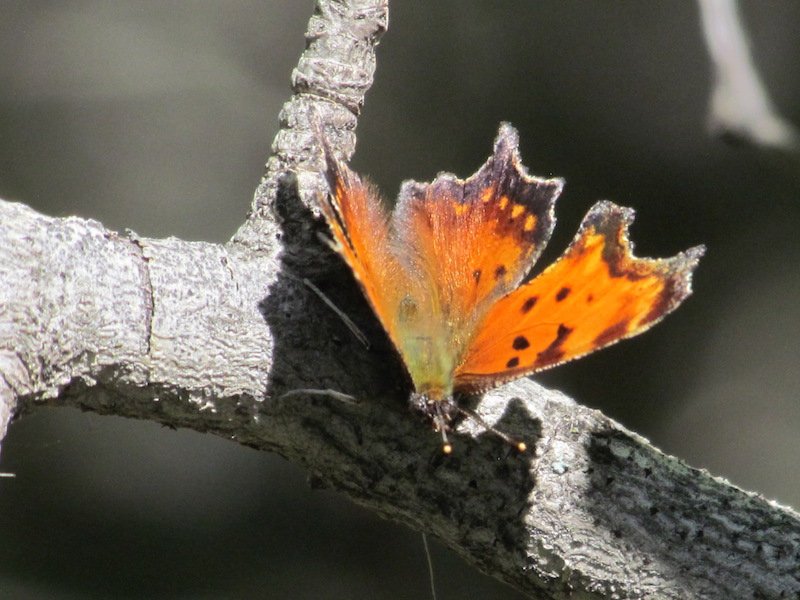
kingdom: Animalia
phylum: Arthropoda
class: Insecta
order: Lepidoptera
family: Nymphalidae
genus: Polygonia
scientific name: Polygonia progne
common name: Gray Comma
